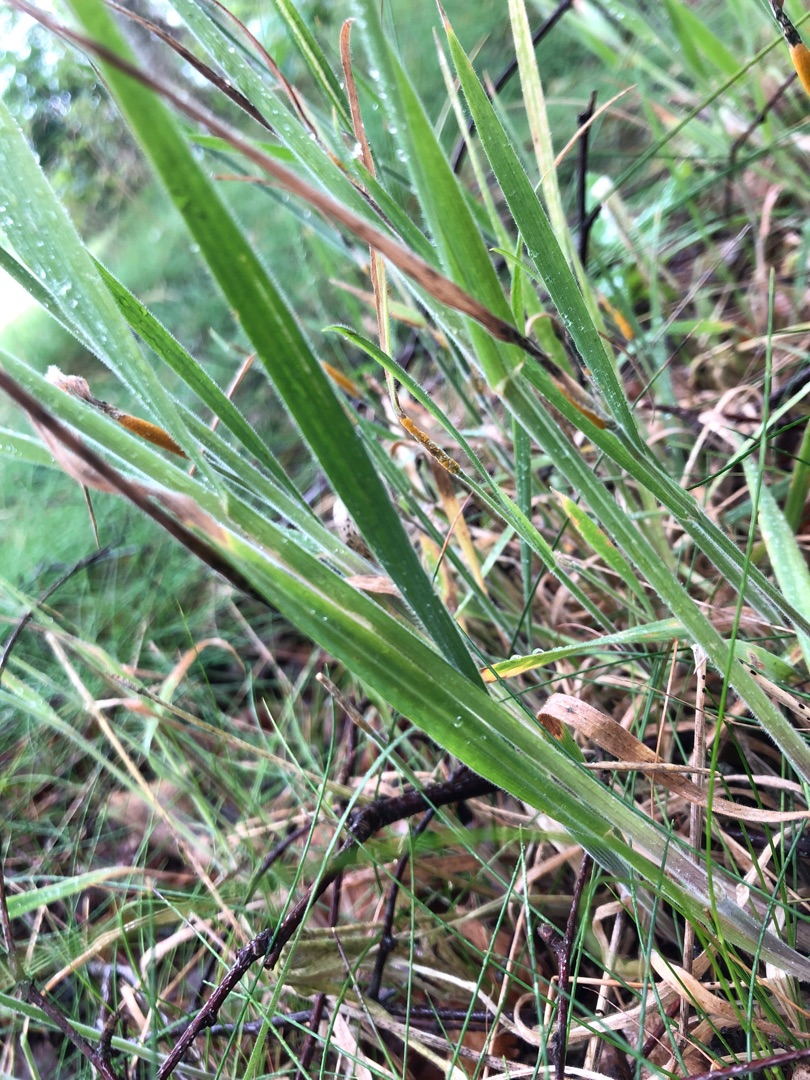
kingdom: Plantae
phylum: Tracheophyta
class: Liliopsida
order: Poales
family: Poaceae
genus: Holcus
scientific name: Holcus lanatus
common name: Fløjlsgræs
